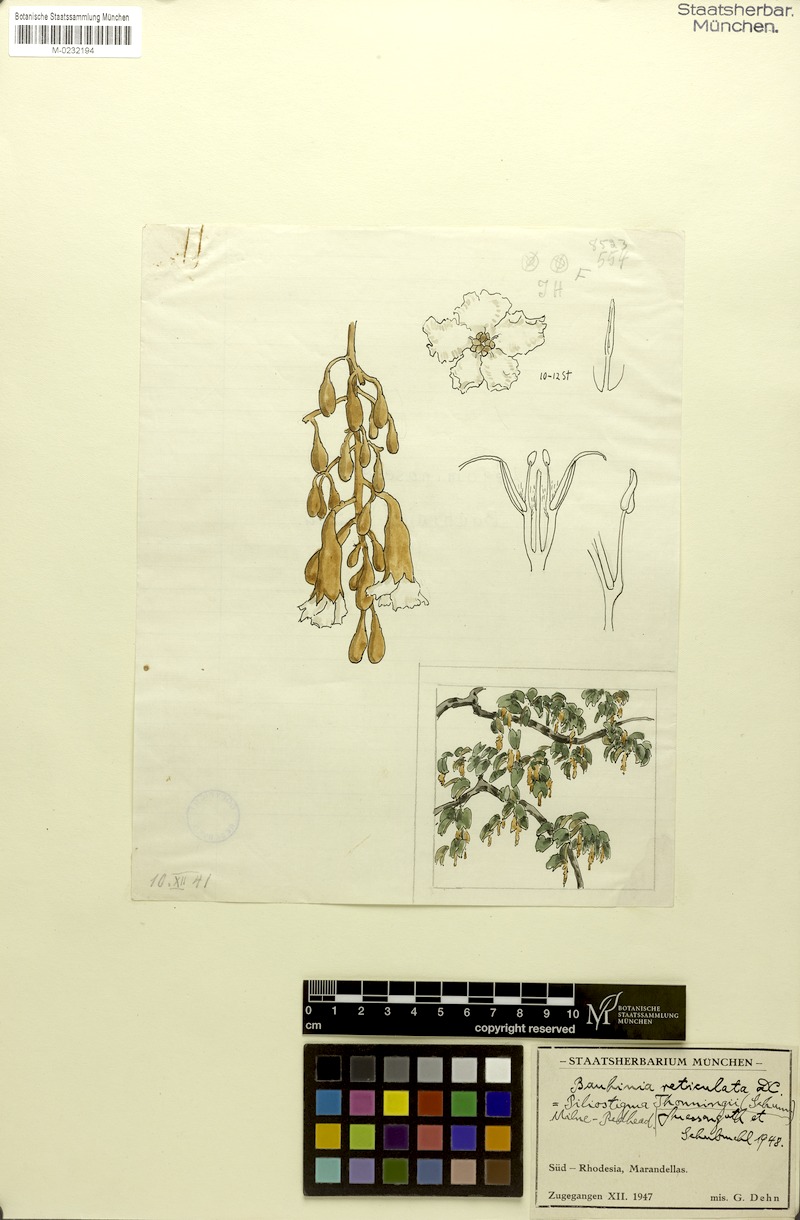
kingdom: Plantae
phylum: Tracheophyta
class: Magnoliopsida
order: Fabales
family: Fabaceae
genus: Piliostigma
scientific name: Piliostigma reticulatum
